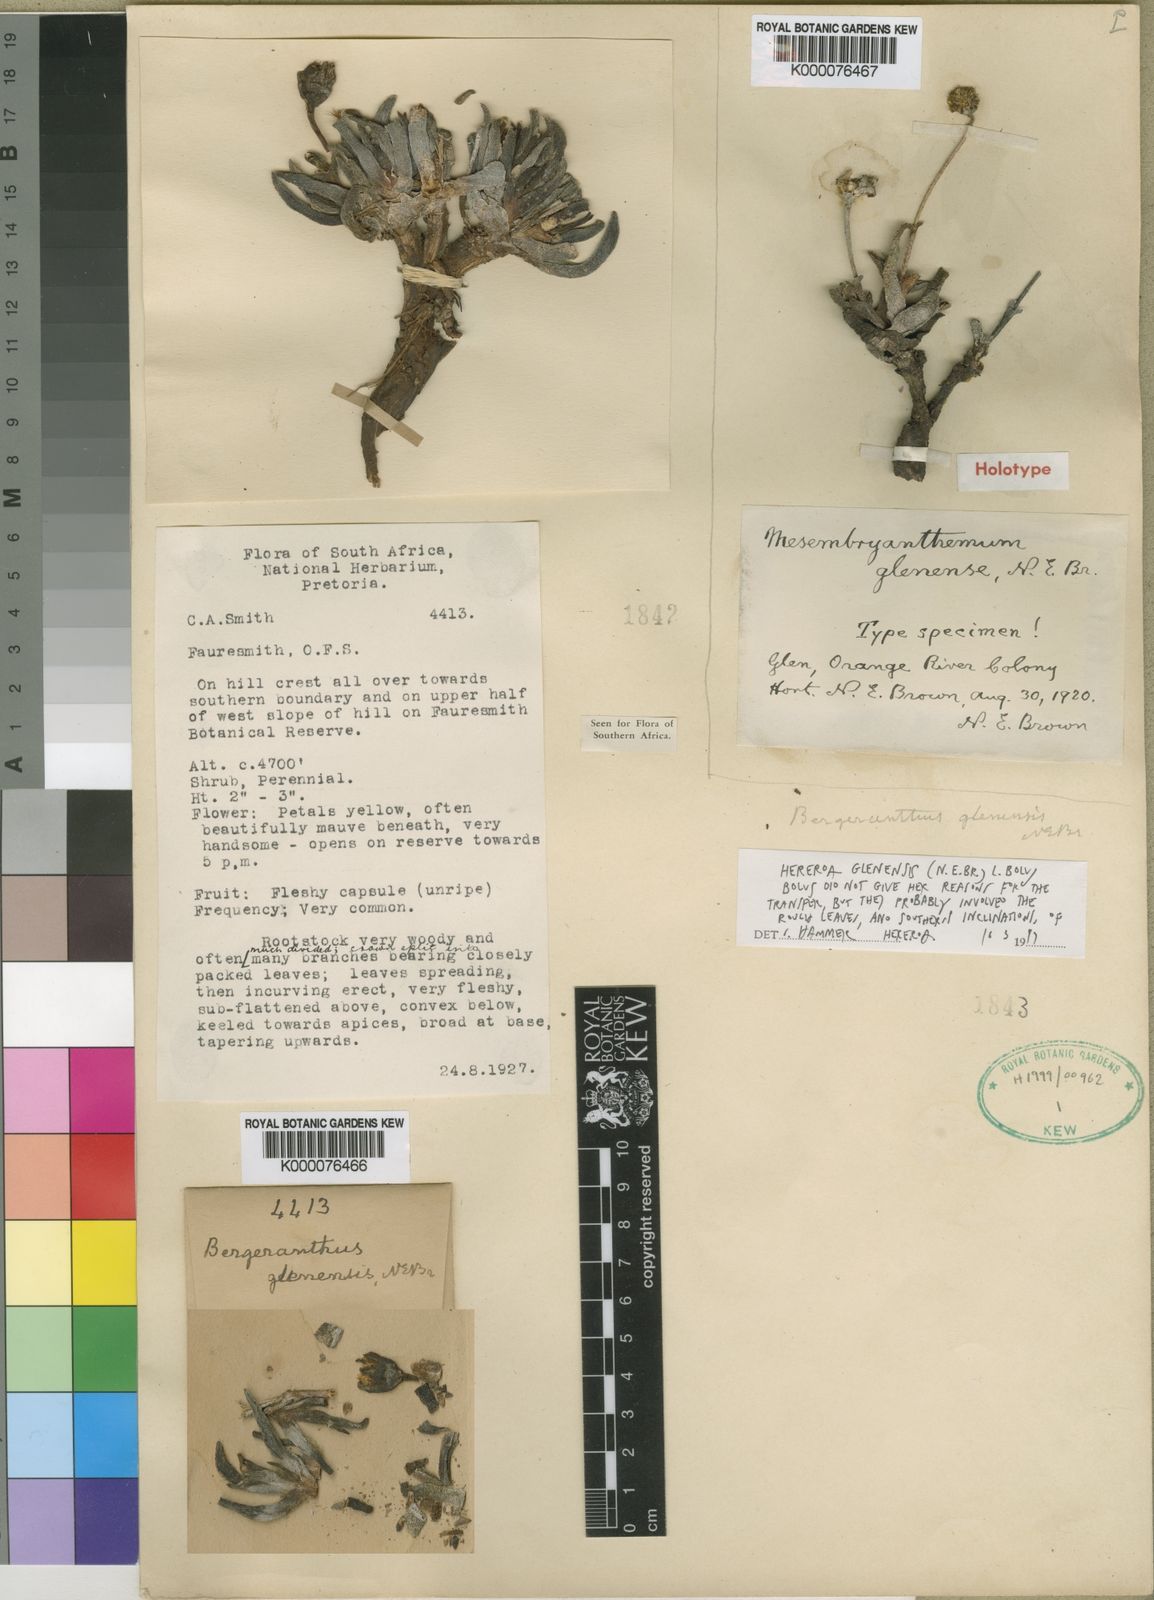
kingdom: Plantae
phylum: Tracheophyta
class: Magnoliopsida
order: Caryophyllales
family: Aizoaceae
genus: Dracophilus
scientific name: Dracophilus Hereroa glenensis
